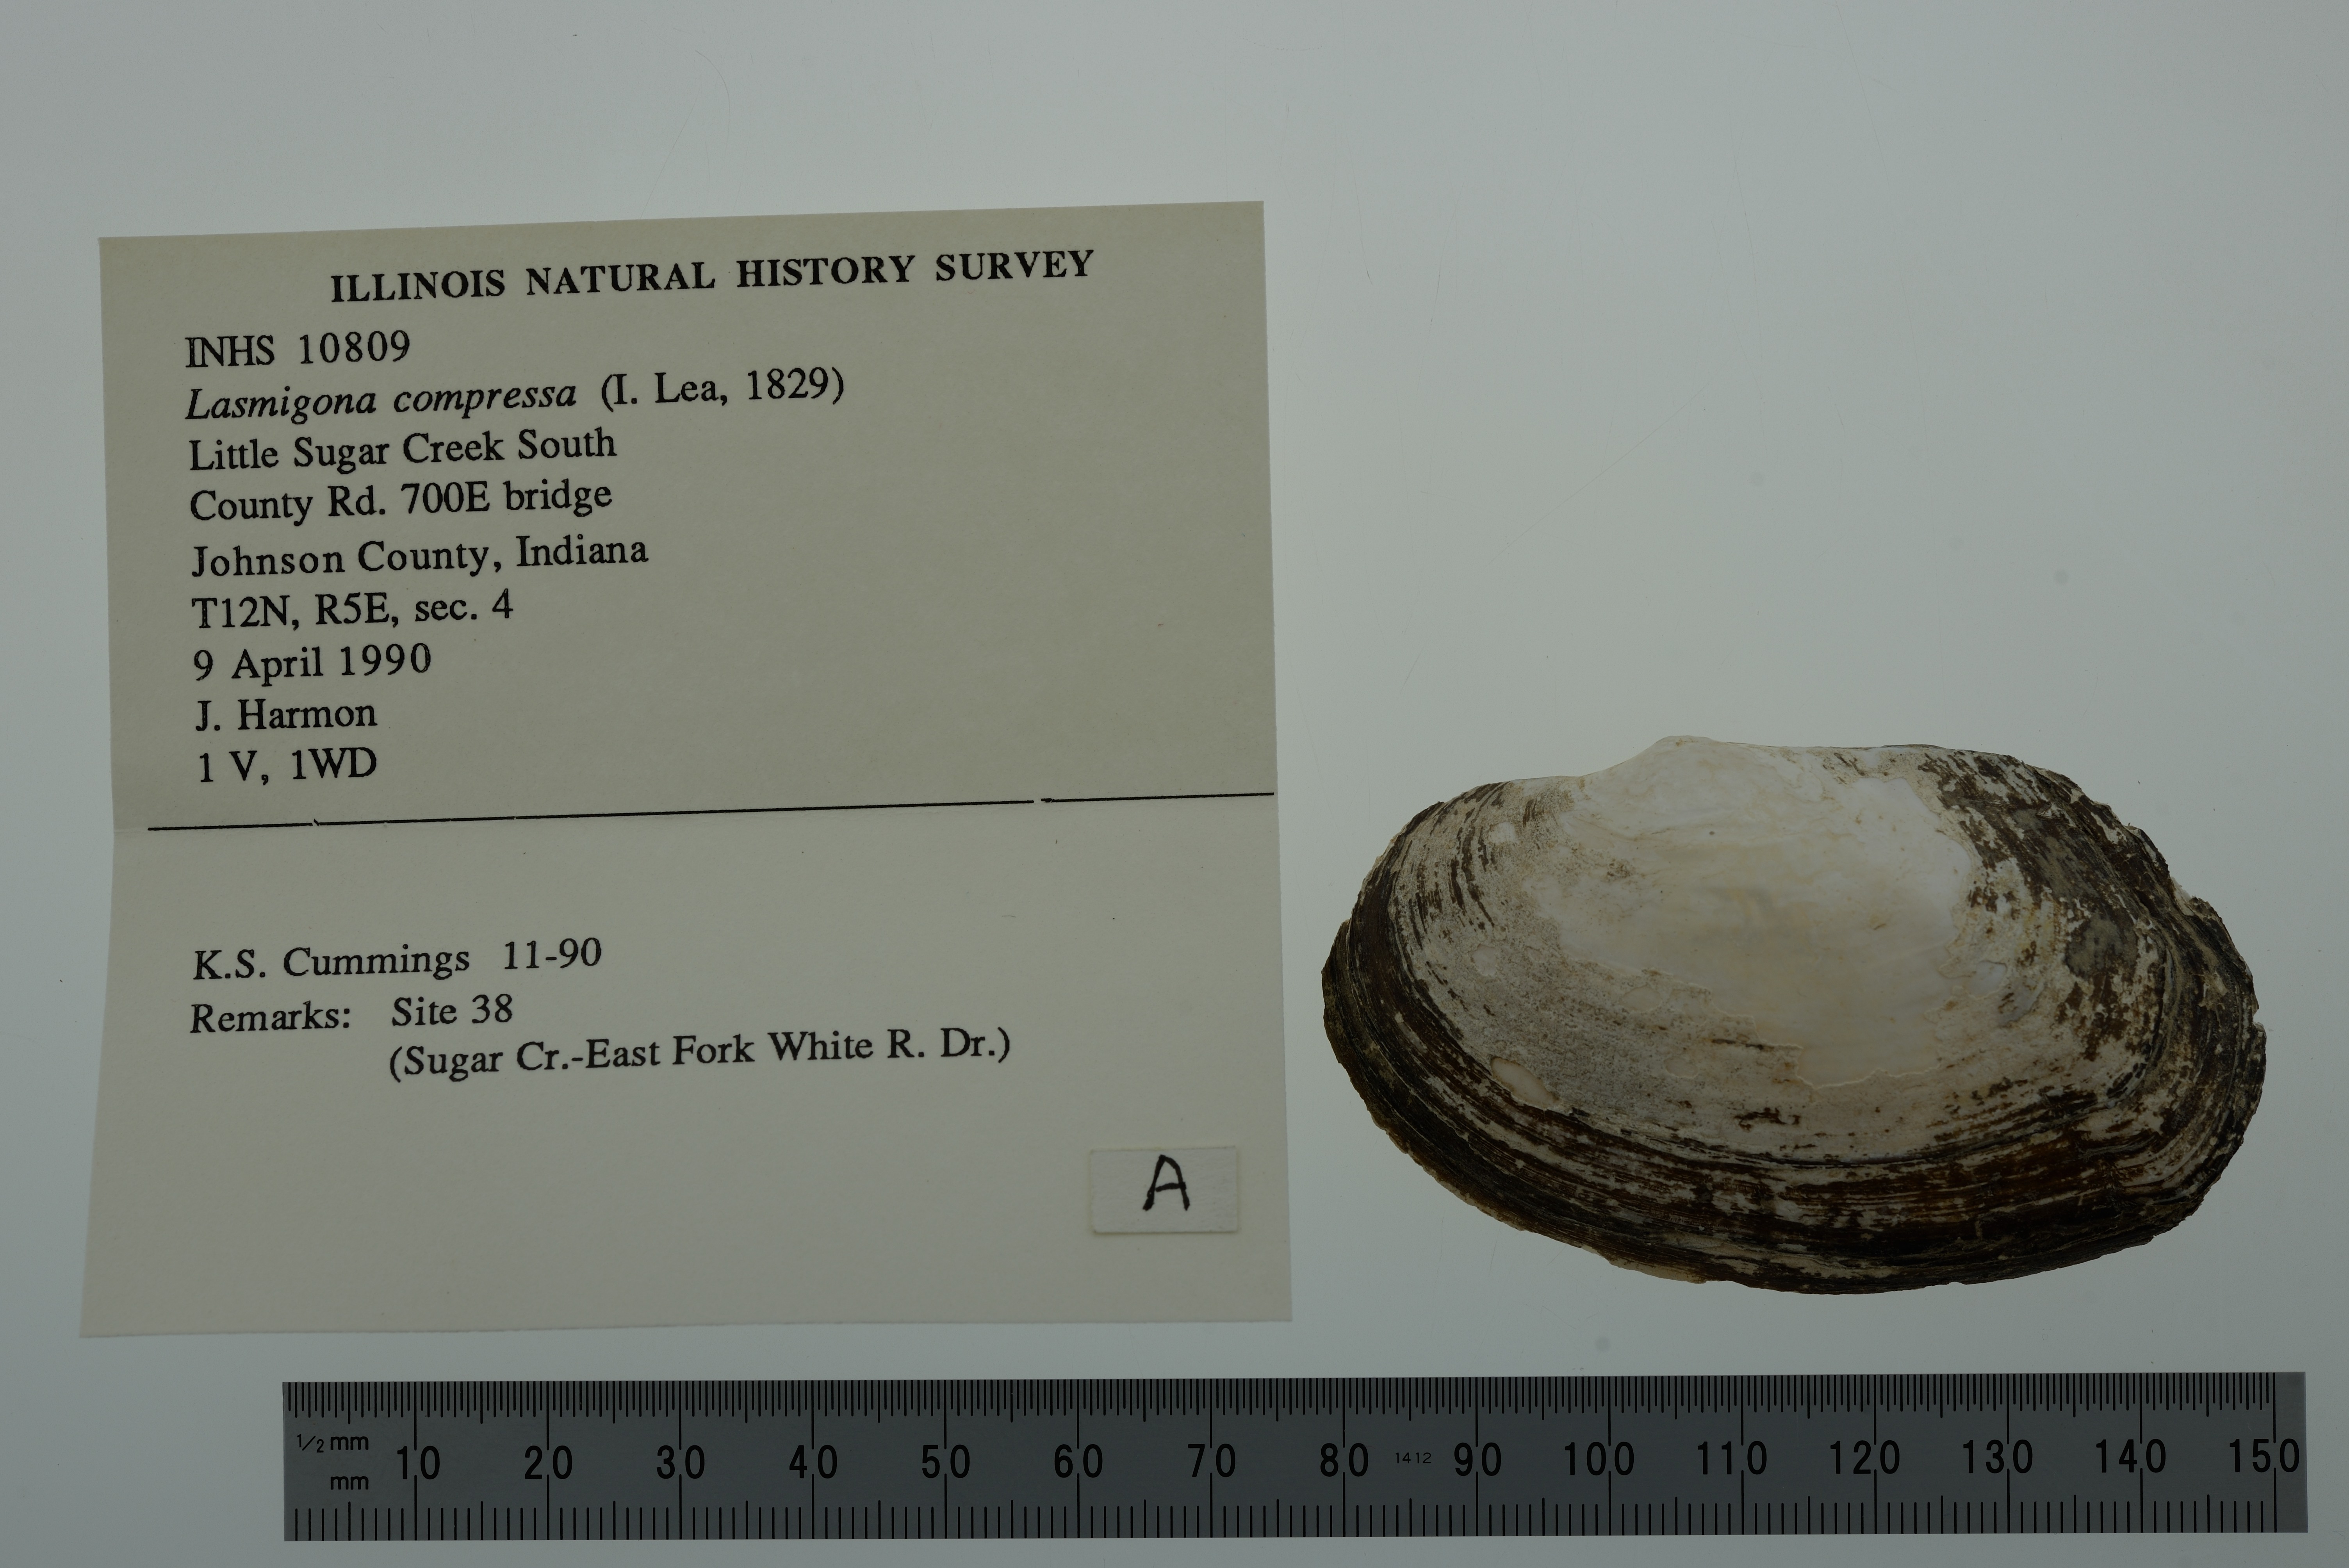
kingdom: Animalia
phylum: Mollusca
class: Bivalvia
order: Unionida
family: Unionidae
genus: Lasmigona
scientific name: Lasmigona compressa
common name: Creek heelsplitter
